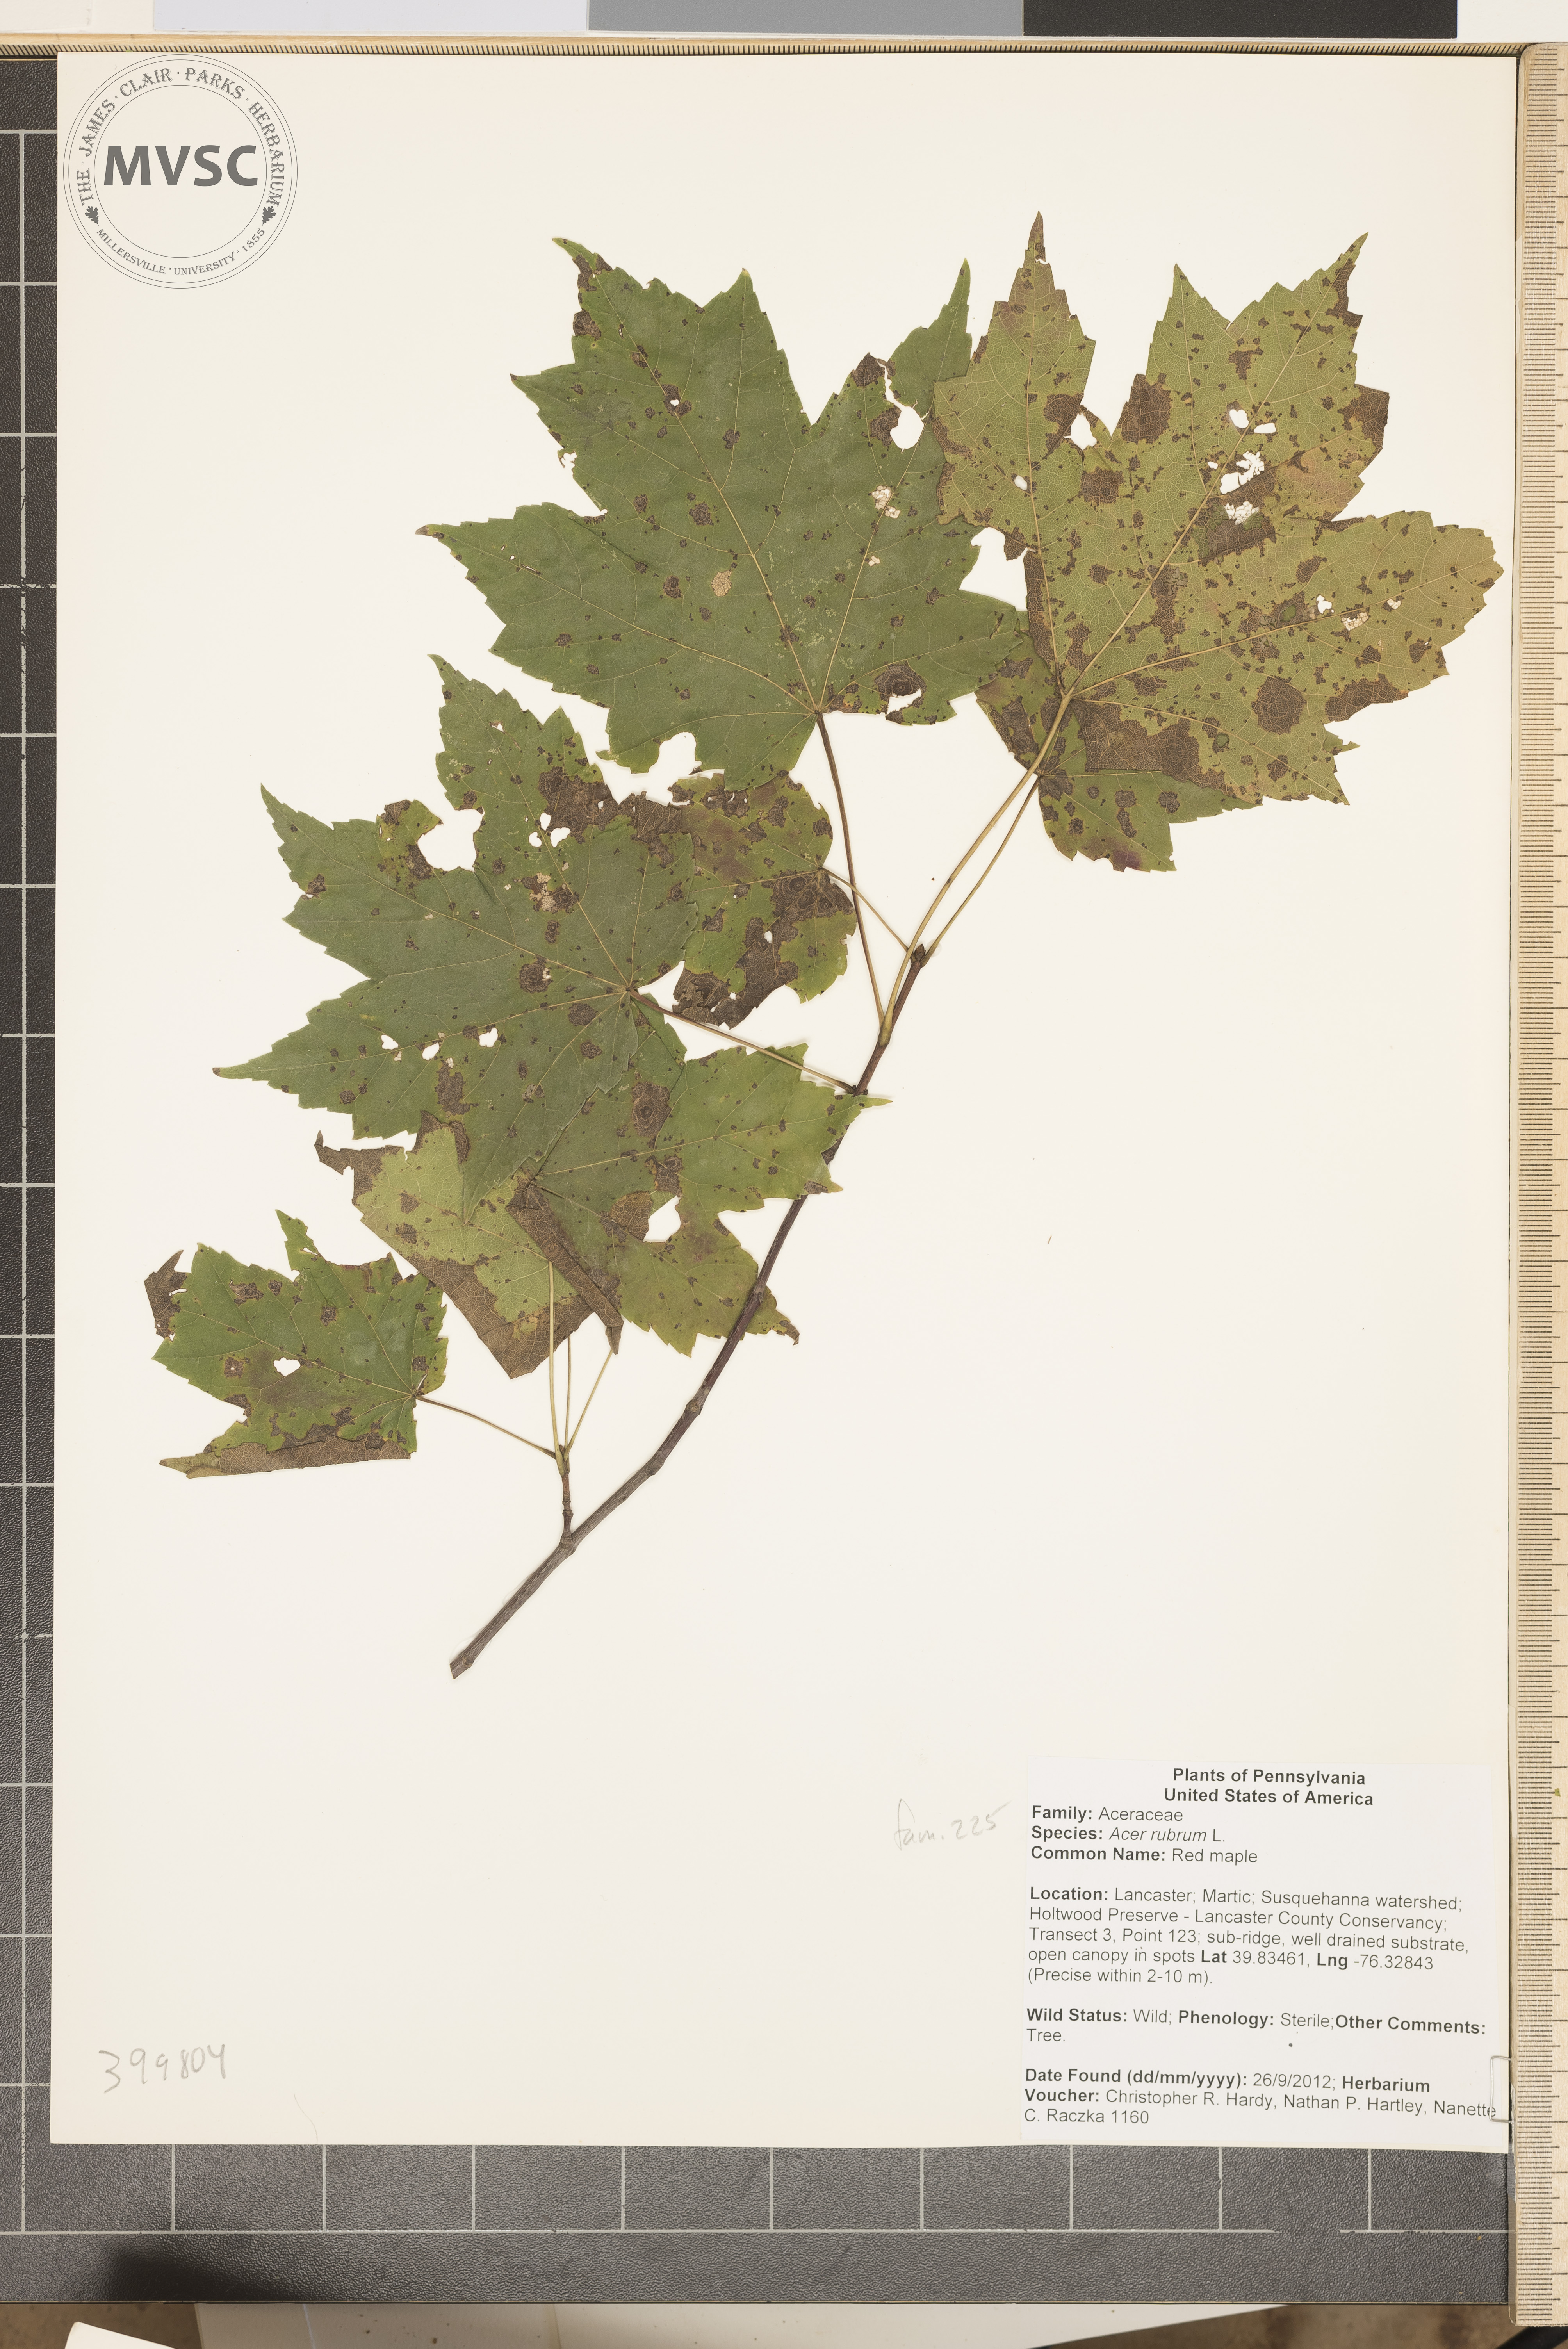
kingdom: Plantae
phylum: Tracheophyta
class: Magnoliopsida
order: Sapindales
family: Sapindaceae
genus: Acer
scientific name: Acer rubrum
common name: Red maple
